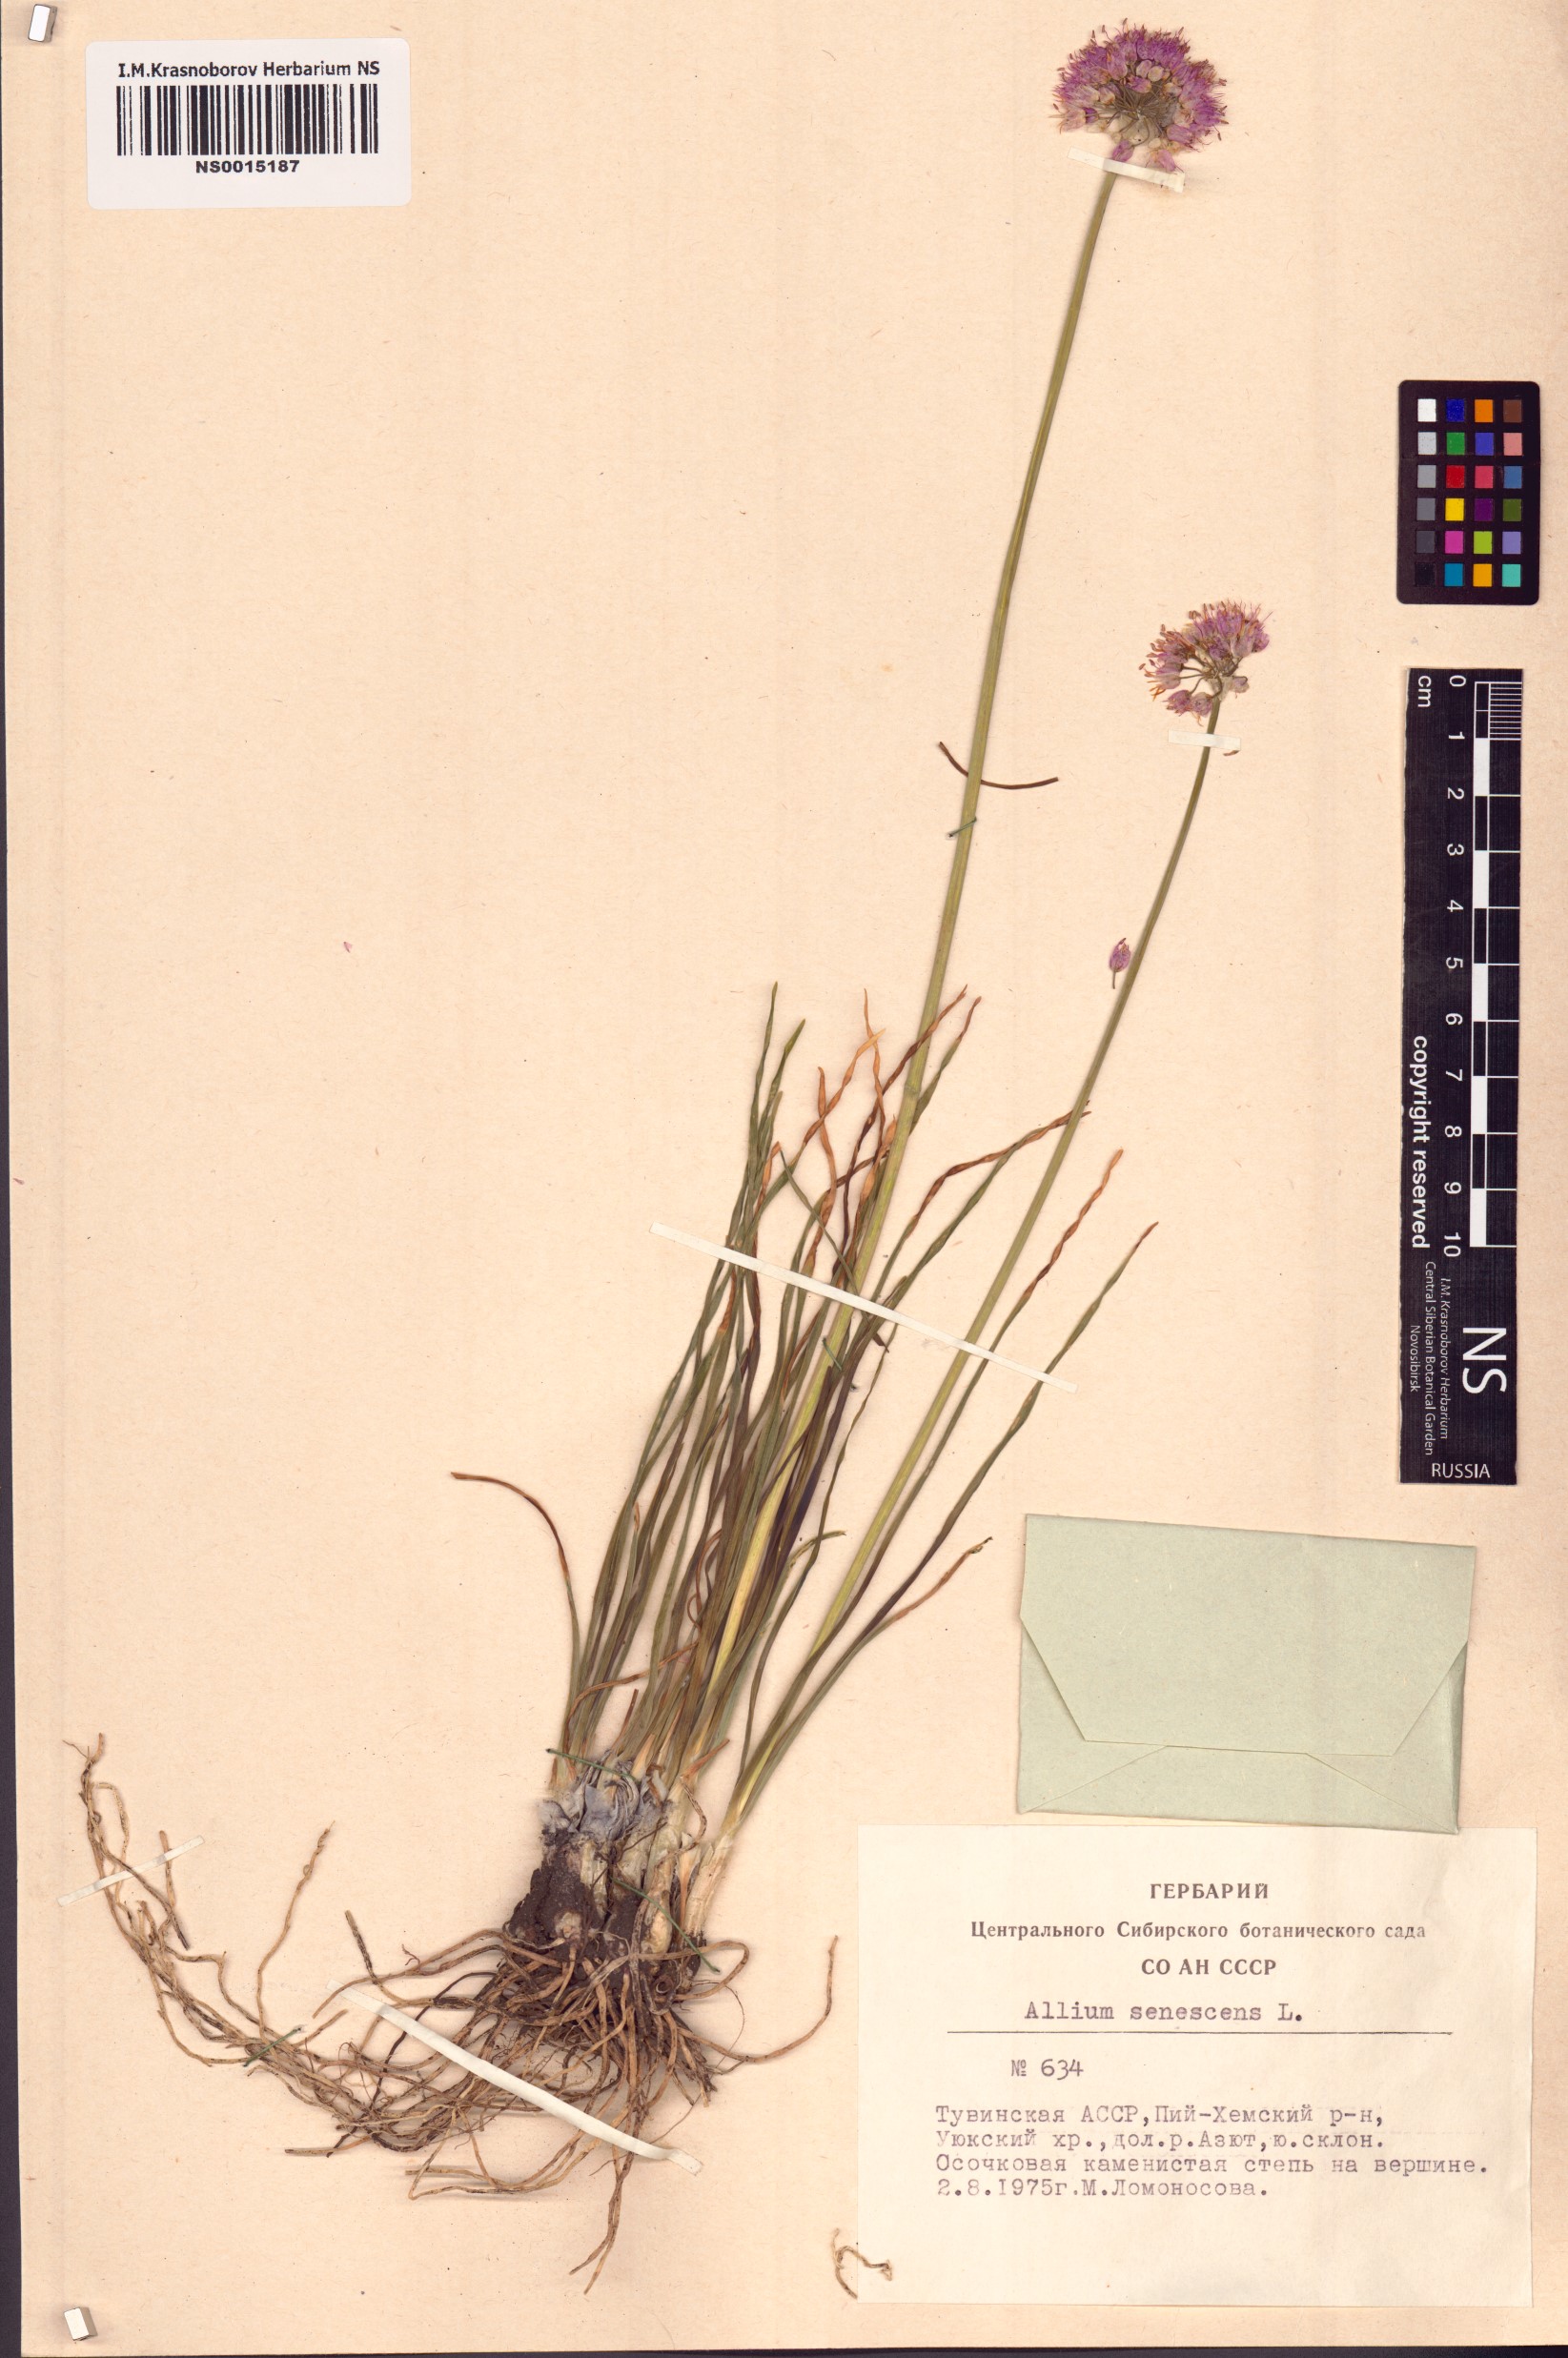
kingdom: Plantae
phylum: Tracheophyta
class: Liliopsida
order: Asparagales
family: Amaryllidaceae
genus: Allium
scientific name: Allium senescens
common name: German garlic
